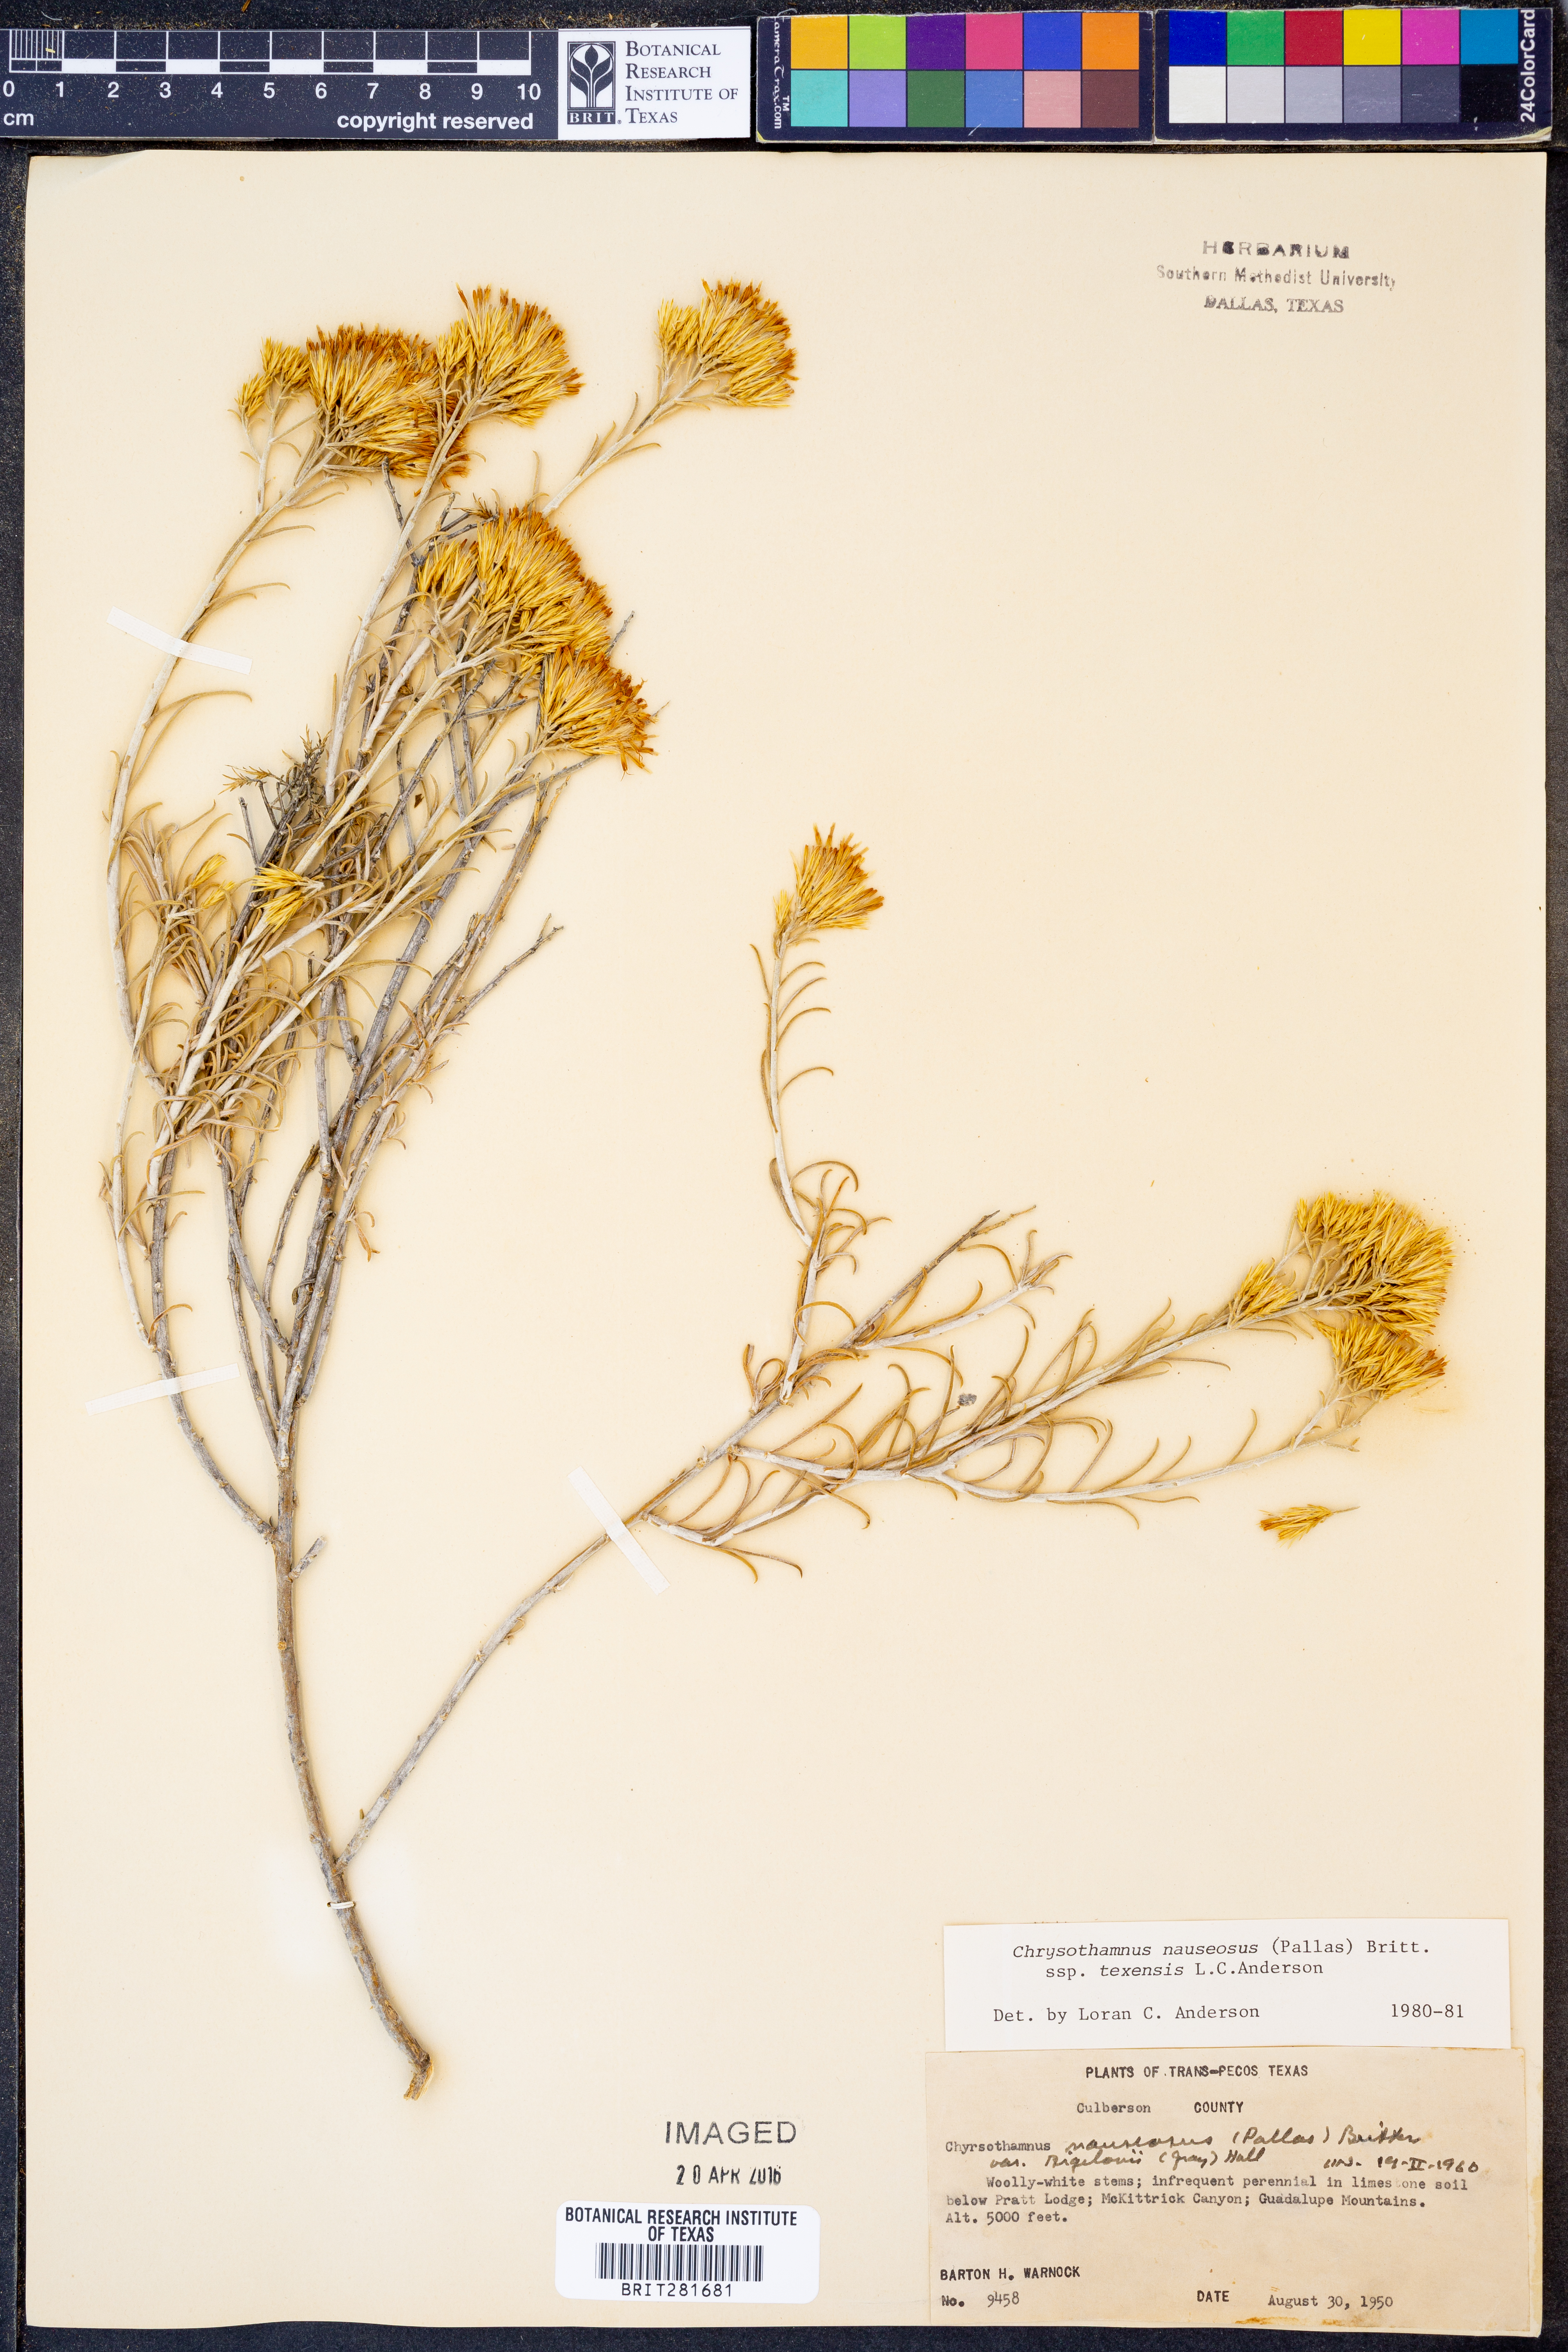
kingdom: Plantae
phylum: Tracheophyta
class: Magnoliopsida
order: Asterales
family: Asteraceae
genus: Ericameria
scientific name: Ericameria nauseosa
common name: Rubber rabbitbrush
